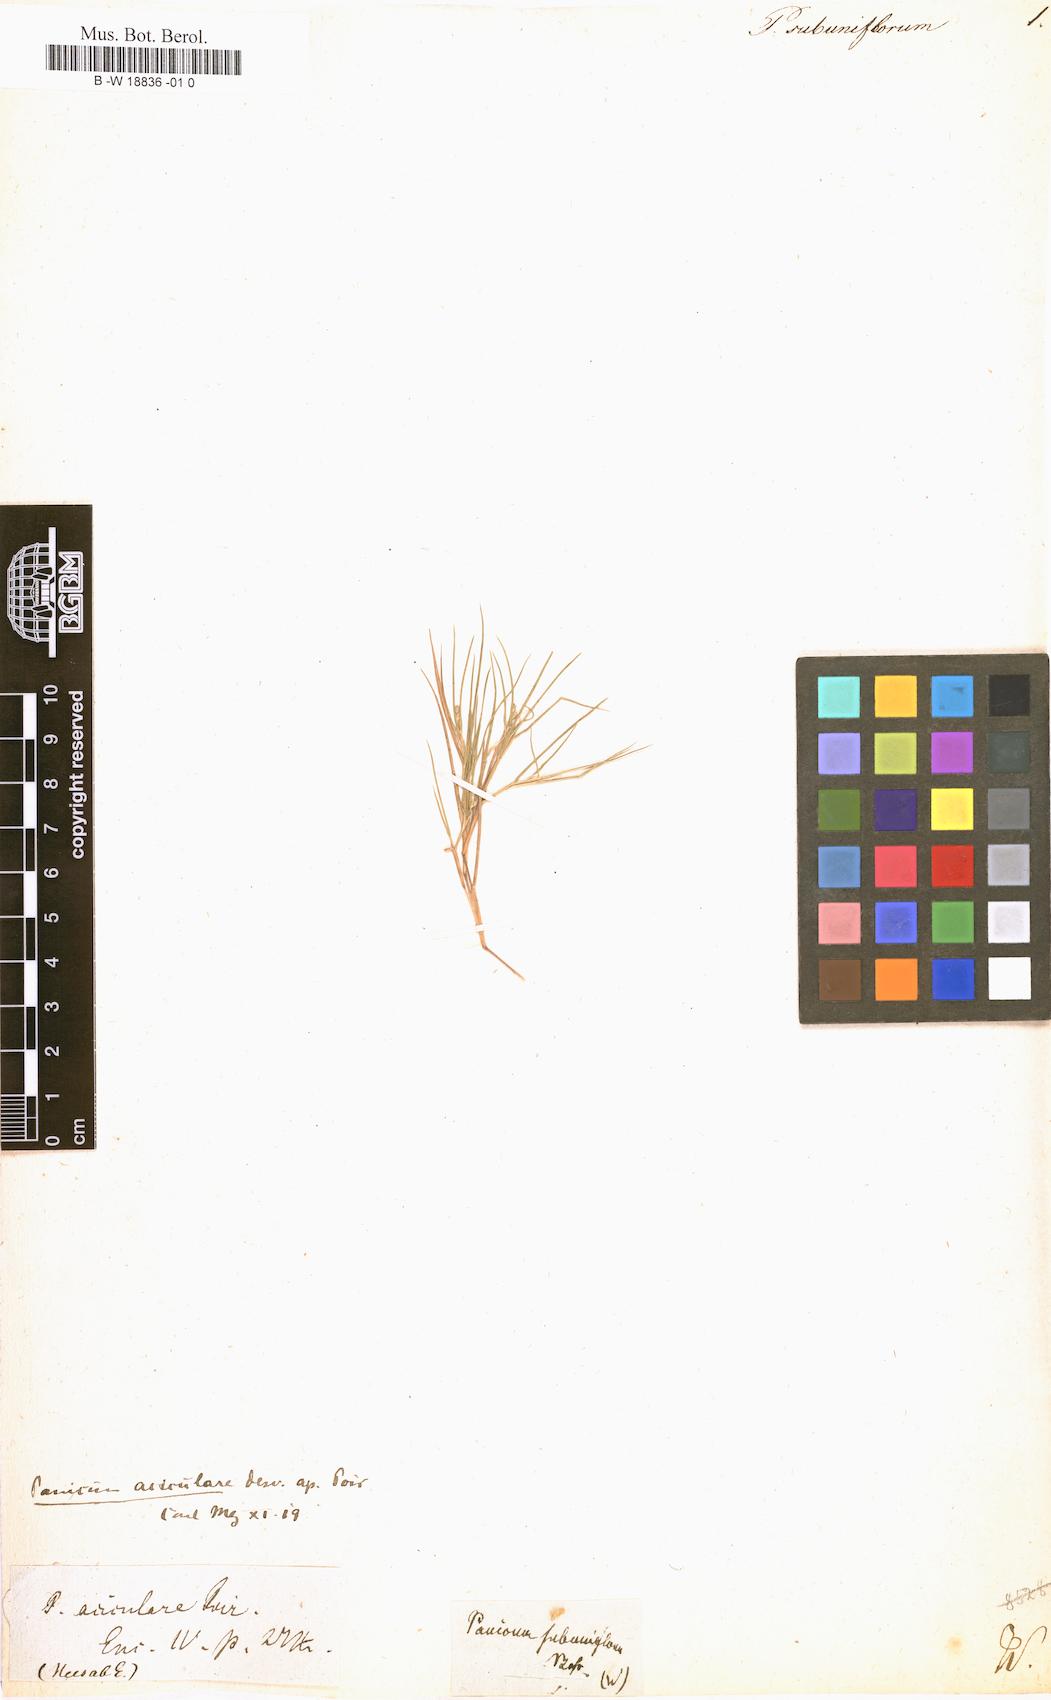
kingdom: Plantae
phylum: Tracheophyta
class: Liliopsida
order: Poales
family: Poaceae
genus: Dichanthelium
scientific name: Dichanthelium aciculare
